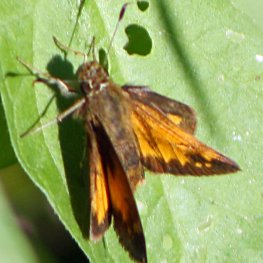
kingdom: Animalia
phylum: Arthropoda
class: Insecta
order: Lepidoptera
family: Hesperiidae
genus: Lon
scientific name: Lon hobomok
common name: Hobomok Skipper
